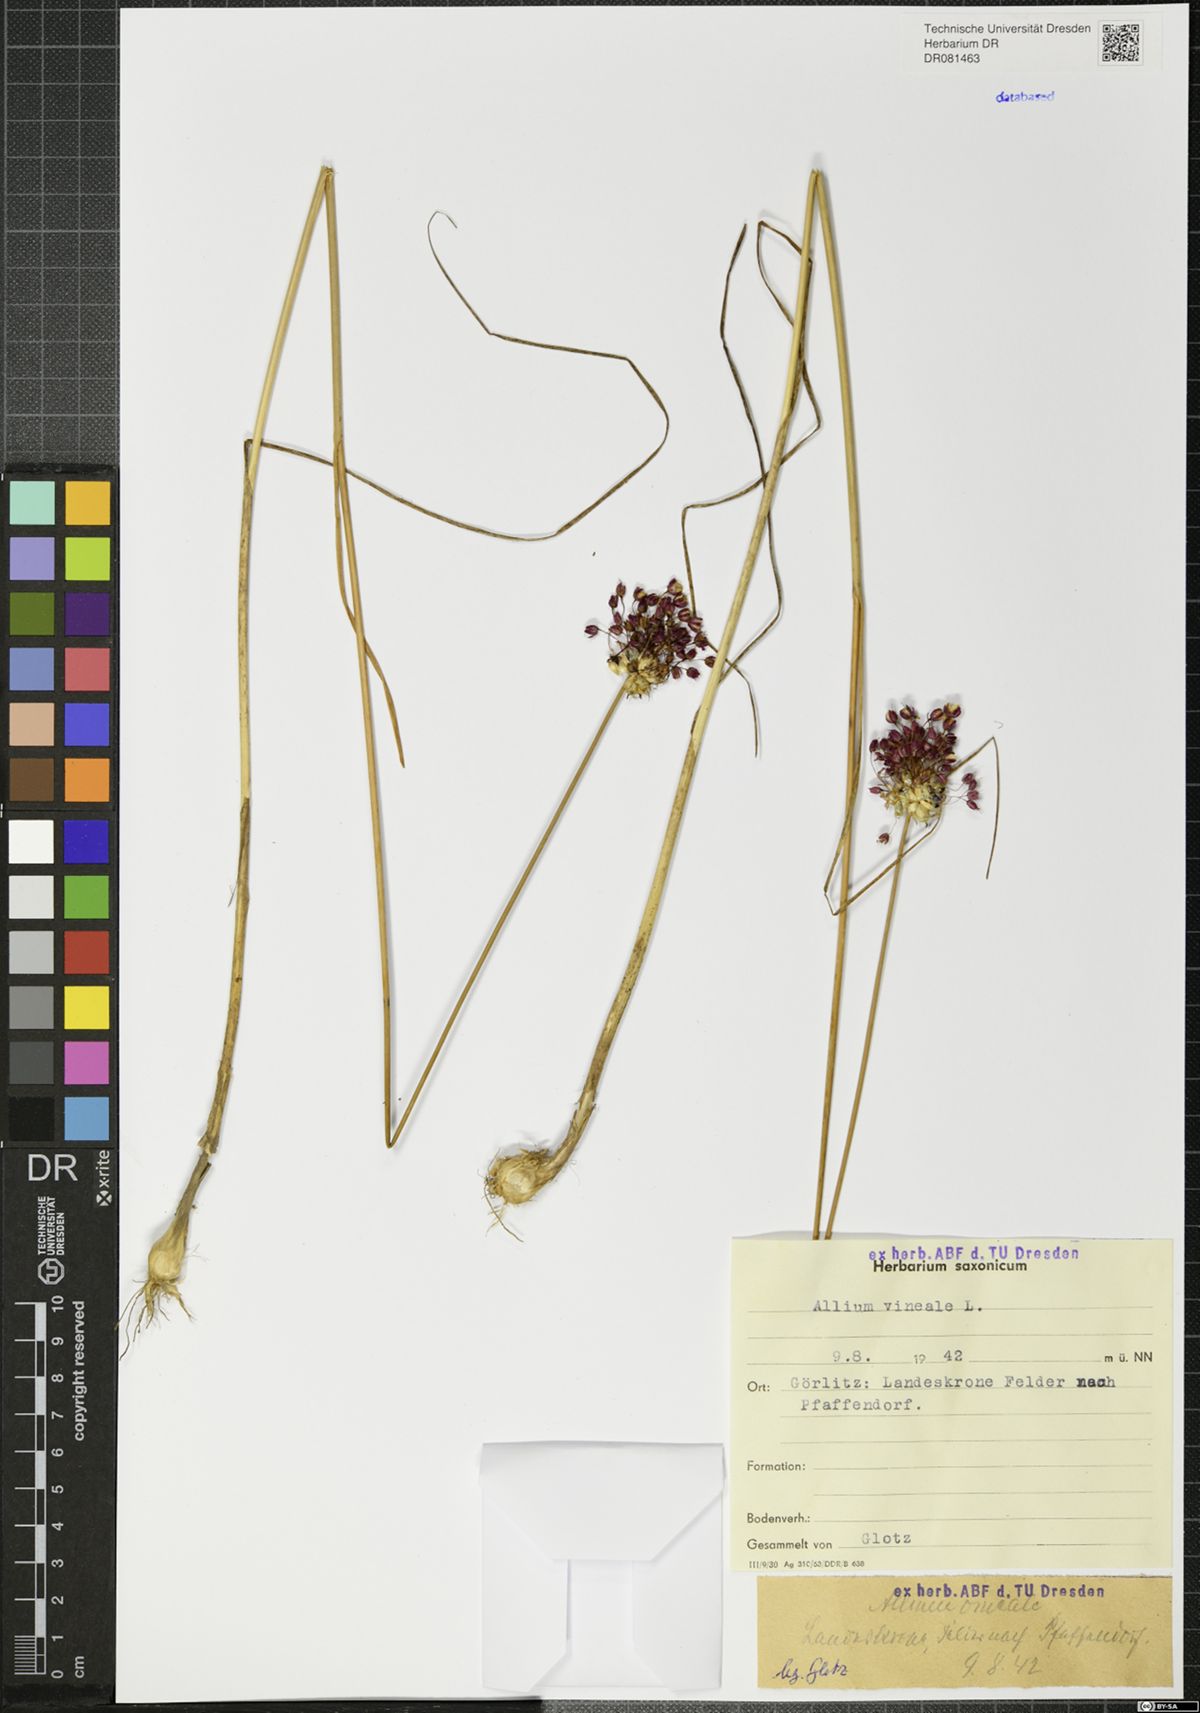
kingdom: Plantae
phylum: Tracheophyta
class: Liliopsida
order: Asparagales
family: Amaryllidaceae
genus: Allium
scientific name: Allium vineale
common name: Crow garlic
